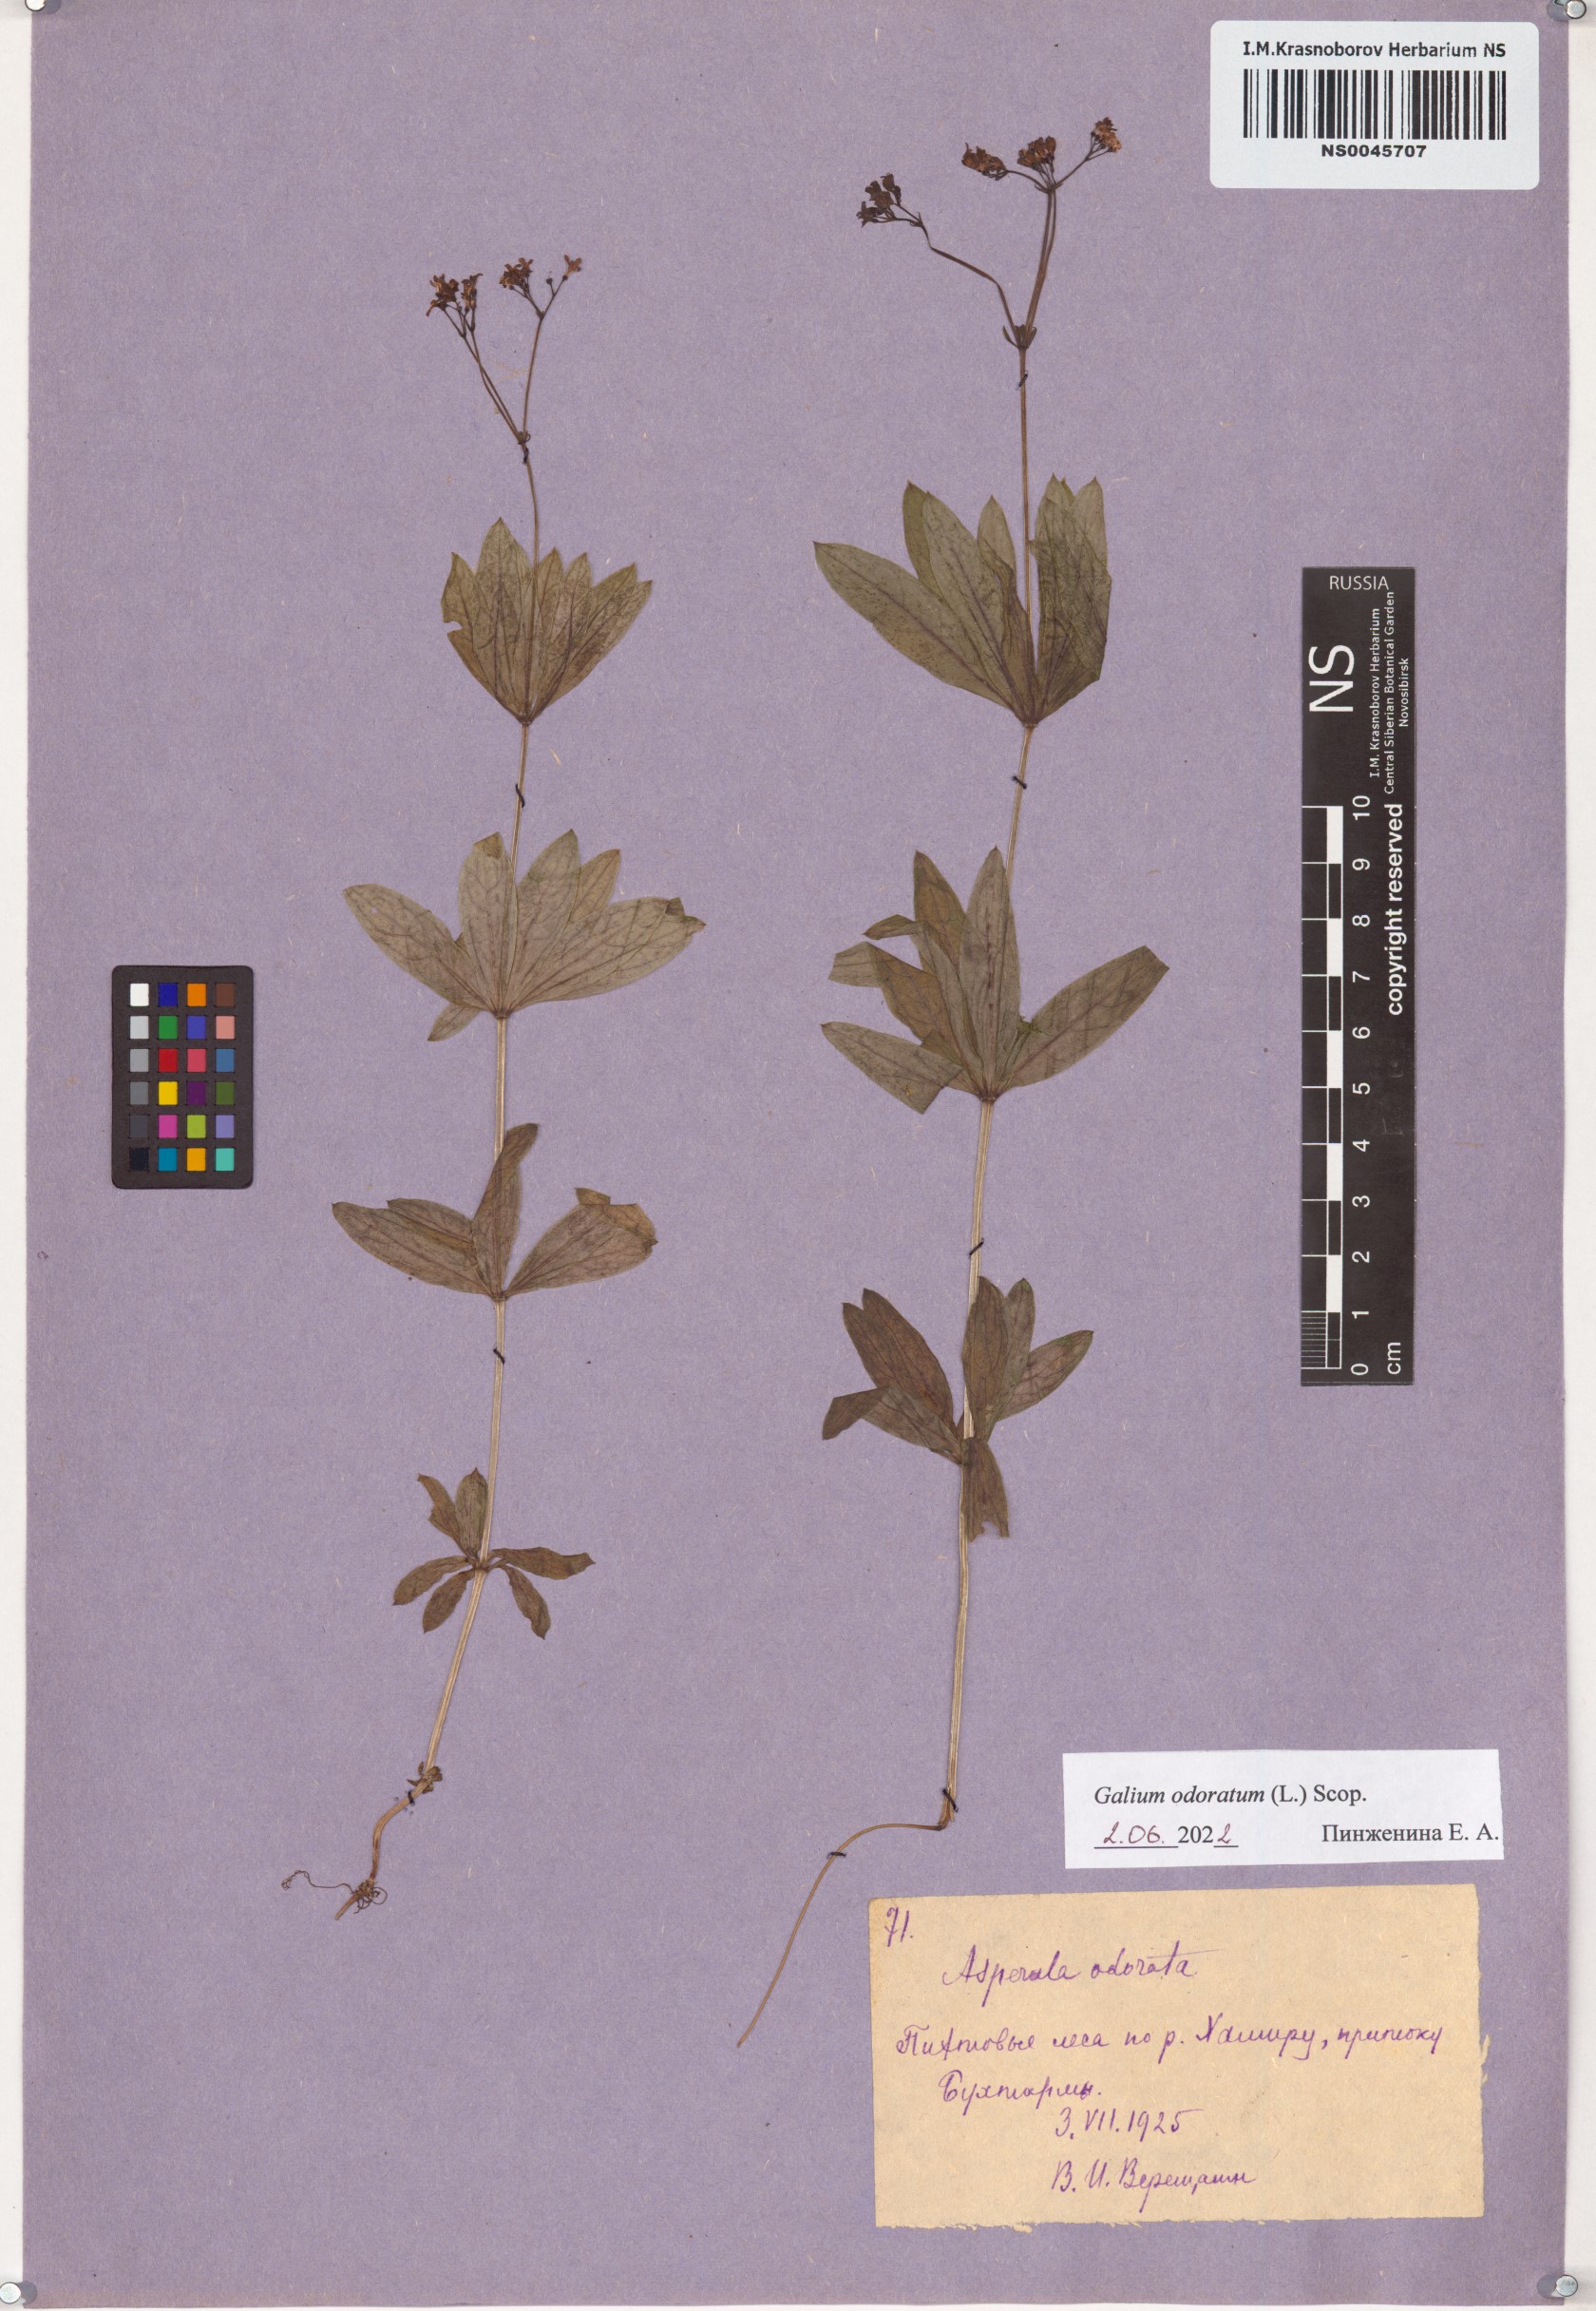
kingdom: Plantae
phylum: Tracheophyta
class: Magnoliopsida
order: Gentianales
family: Rubiaceae
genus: Galium
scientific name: Galium odoratum
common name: Sweet woodruff
